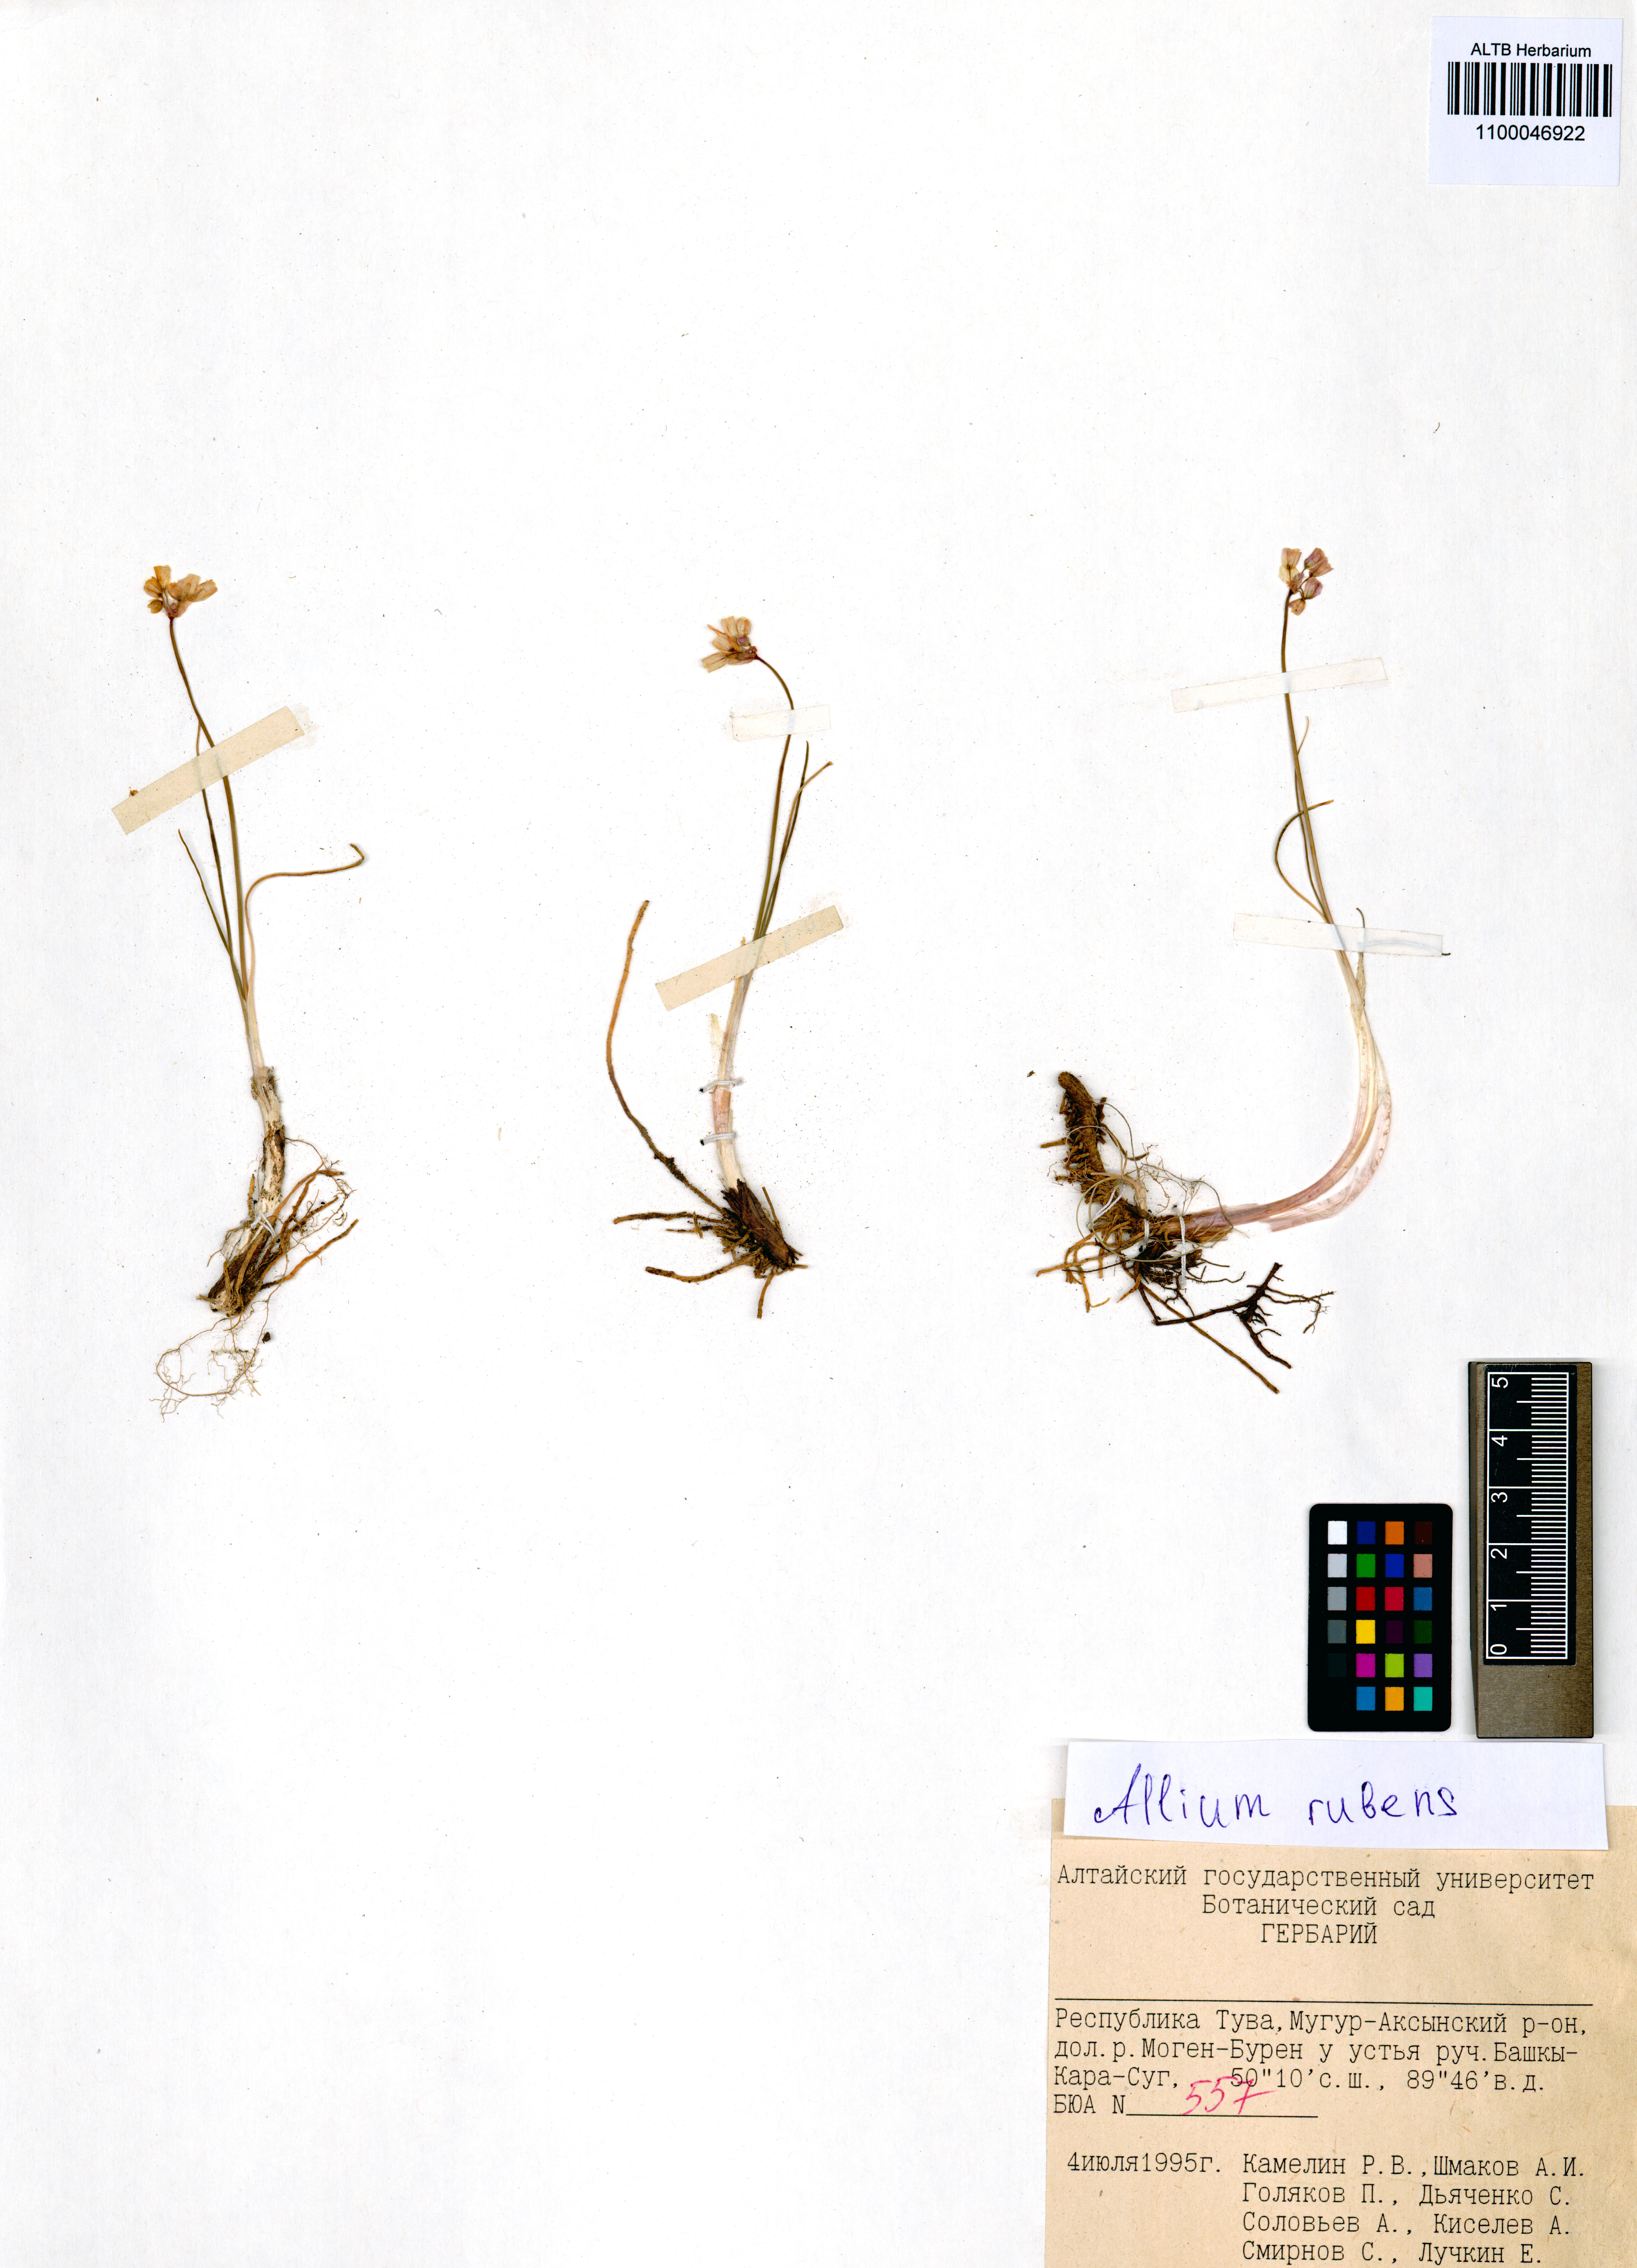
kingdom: Plantae
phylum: Tracheophyta
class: Liliopsida
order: Asparagales
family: Amaryllidaceae
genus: Allium
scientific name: Allium rubens
